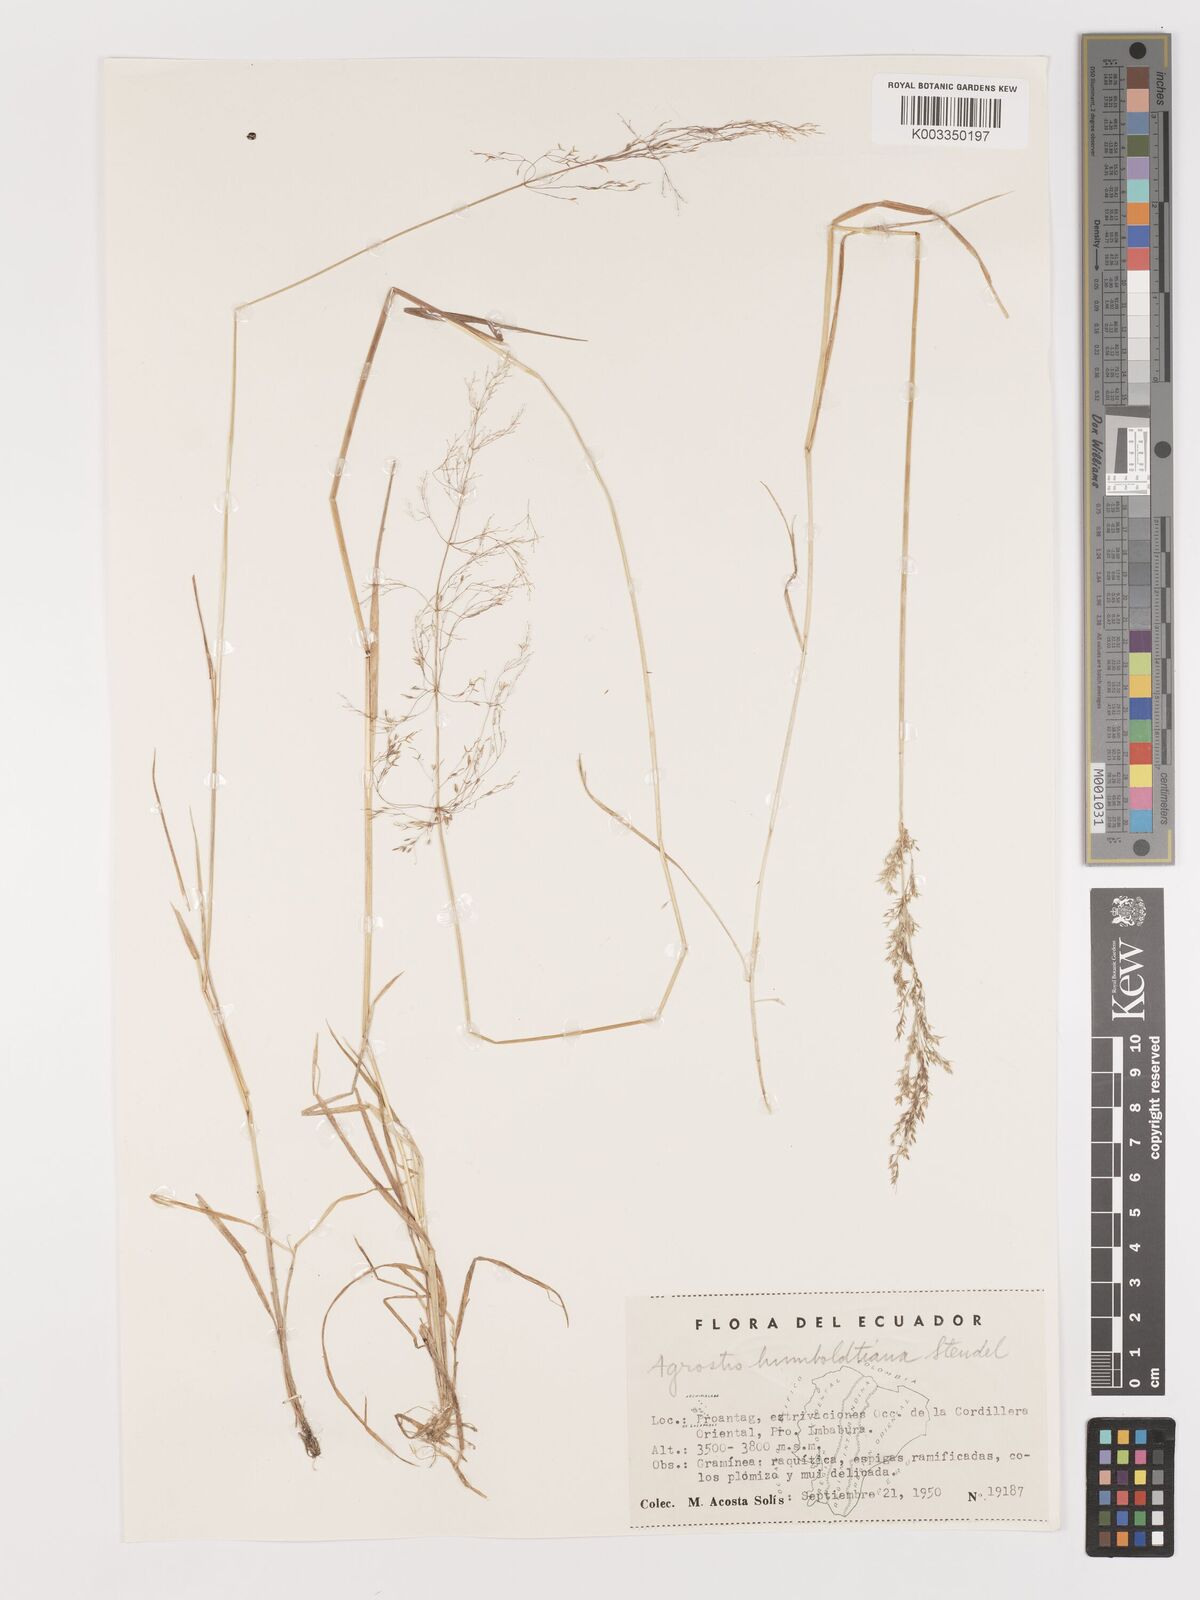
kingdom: Plantae
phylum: Tracheophyta
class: Liliopsida
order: Poales
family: Poaceae
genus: Agrostis
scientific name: Agrostis
